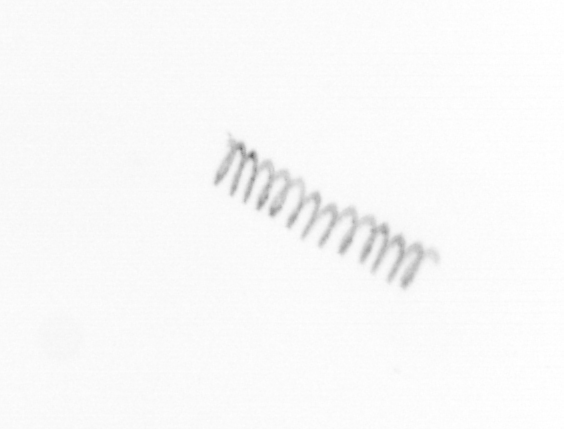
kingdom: Chromista
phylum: Ochrophyta
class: Bacillariophyceae
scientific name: Bacillariophyceae
